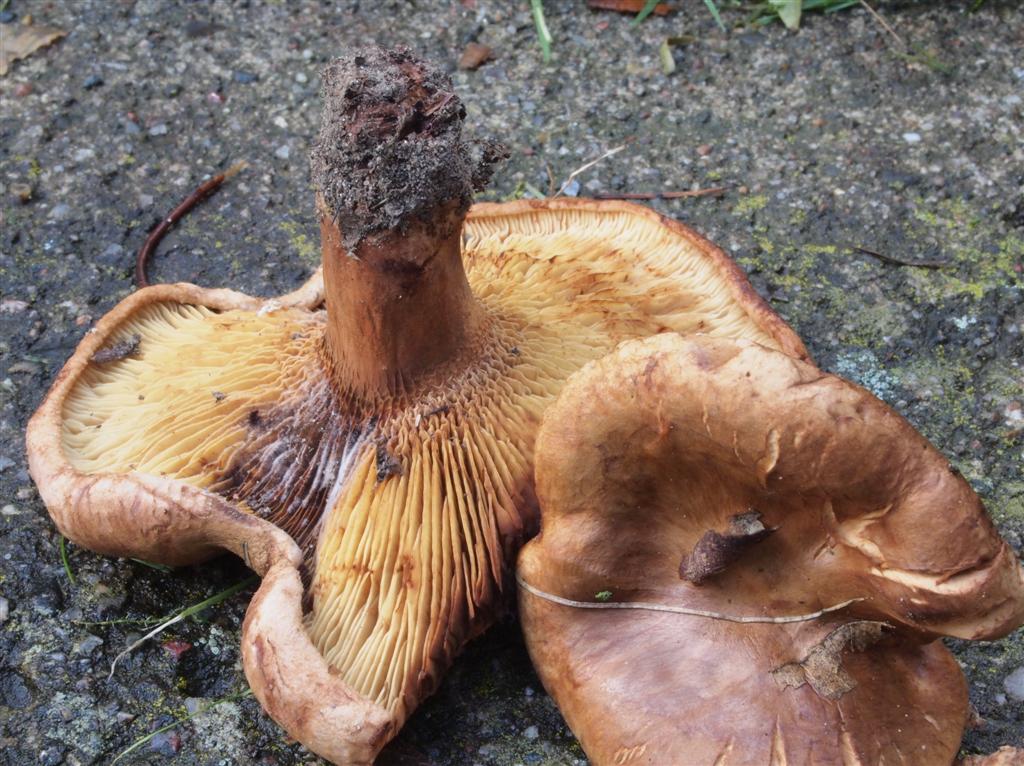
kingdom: Fungi
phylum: Basidiomycota
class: Agaricomycetes
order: Boletales
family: Paxillaceae
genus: Paxillus
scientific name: Paxillus obscurisporus
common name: mahognisporet netbladhat
